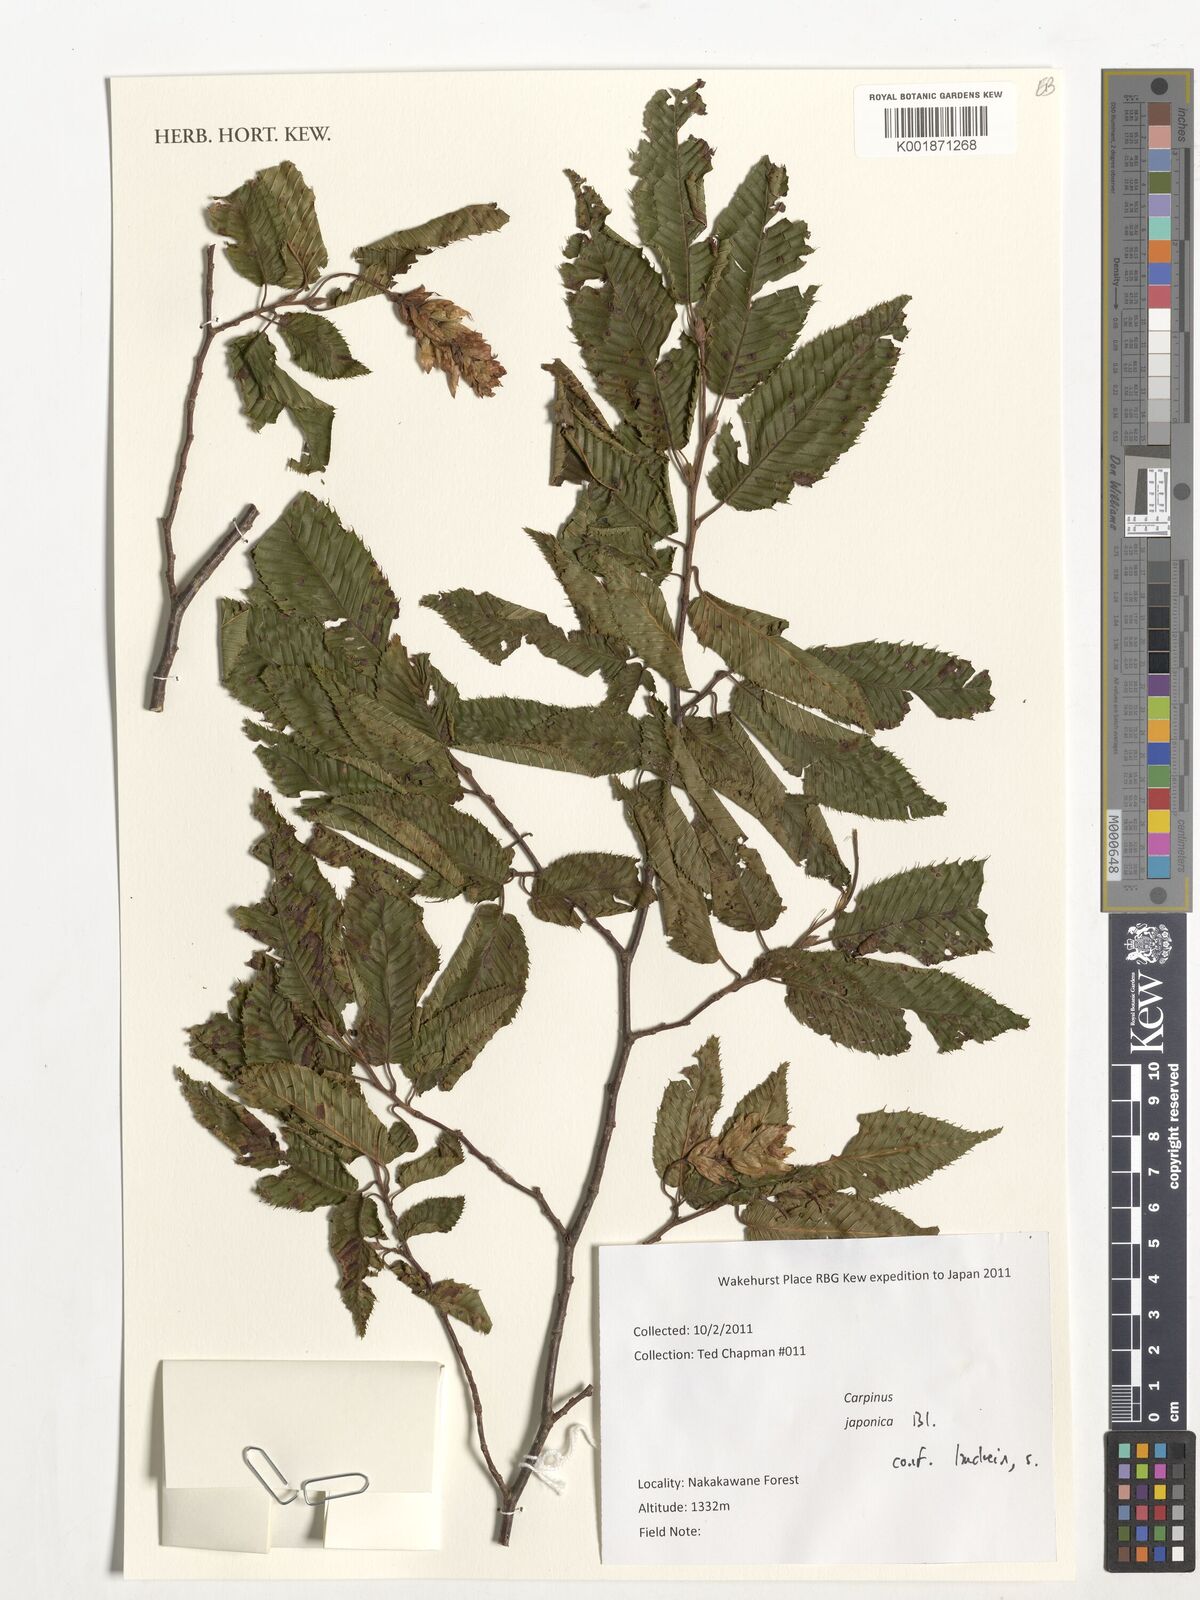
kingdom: Plantae
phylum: Tracheophyta
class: Magnoliopsida
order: Fagales
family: Betulaceae
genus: Carpinus
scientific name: Carpinus japonica
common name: Japanese hornbeam
